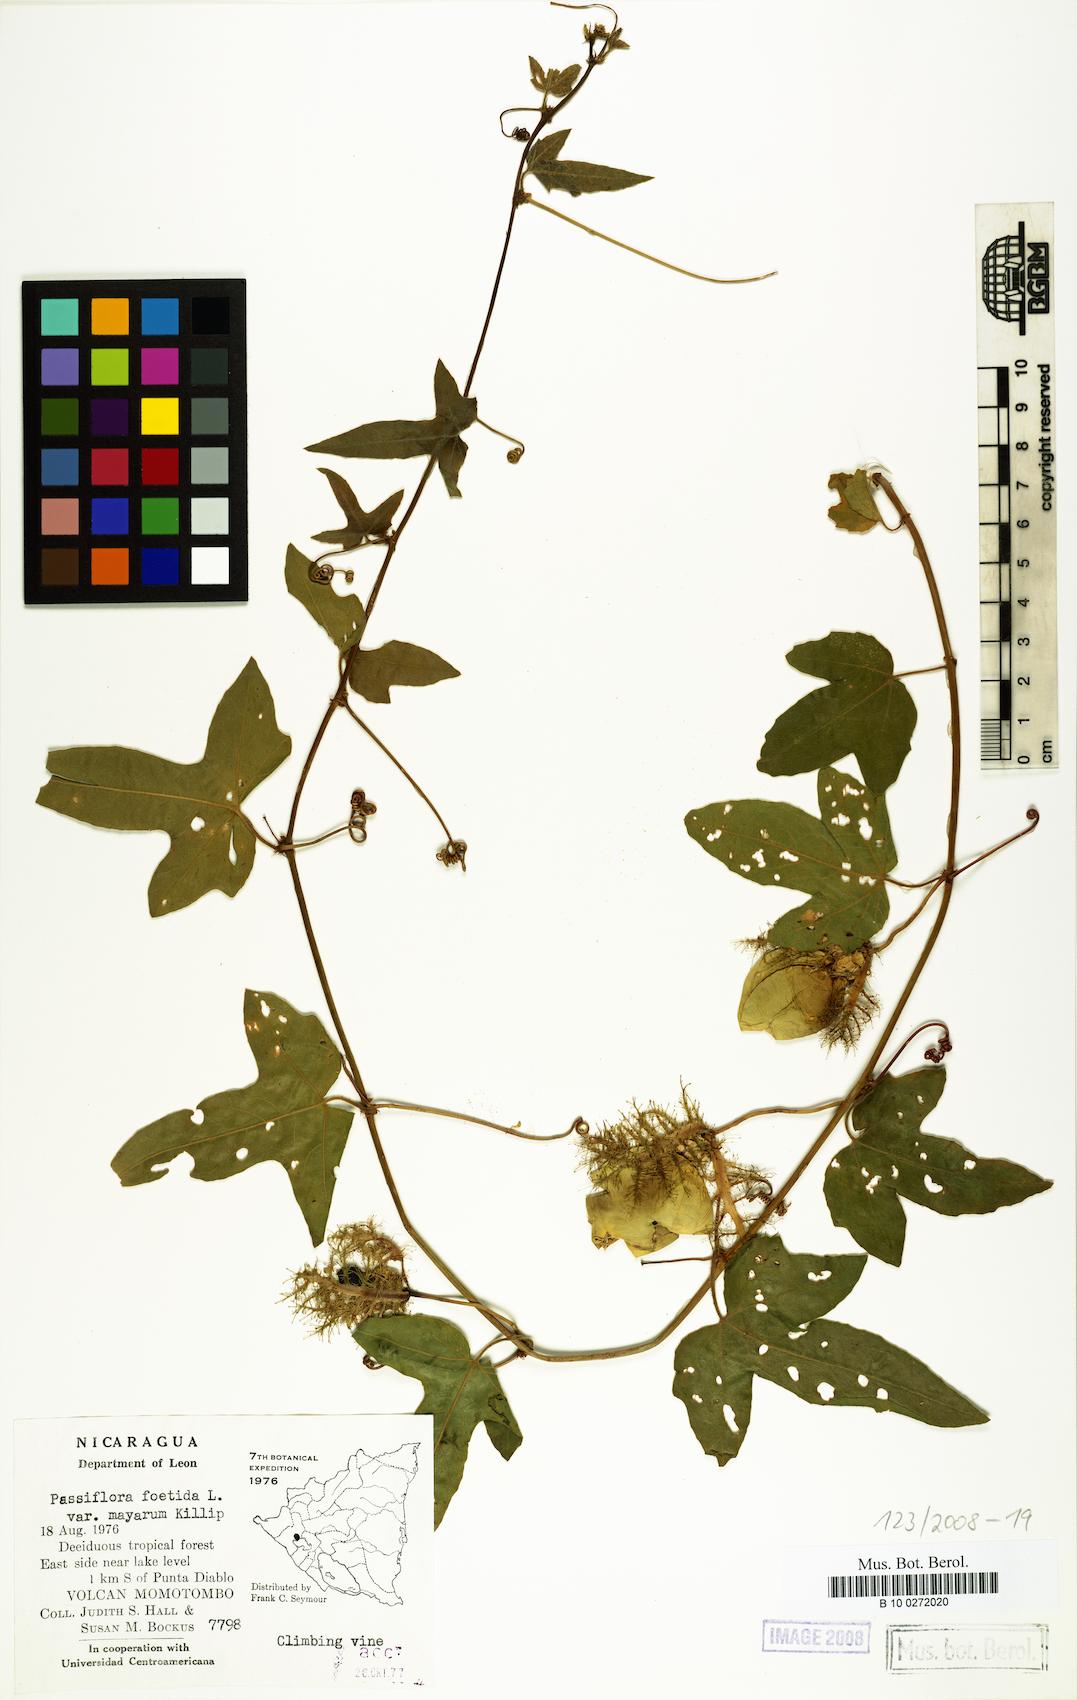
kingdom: Plantae
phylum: Tracheophyta
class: Magnoliopsida
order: Malpighiales
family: Passifloraceae
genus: Passiflora
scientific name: Passiflora ciliata
